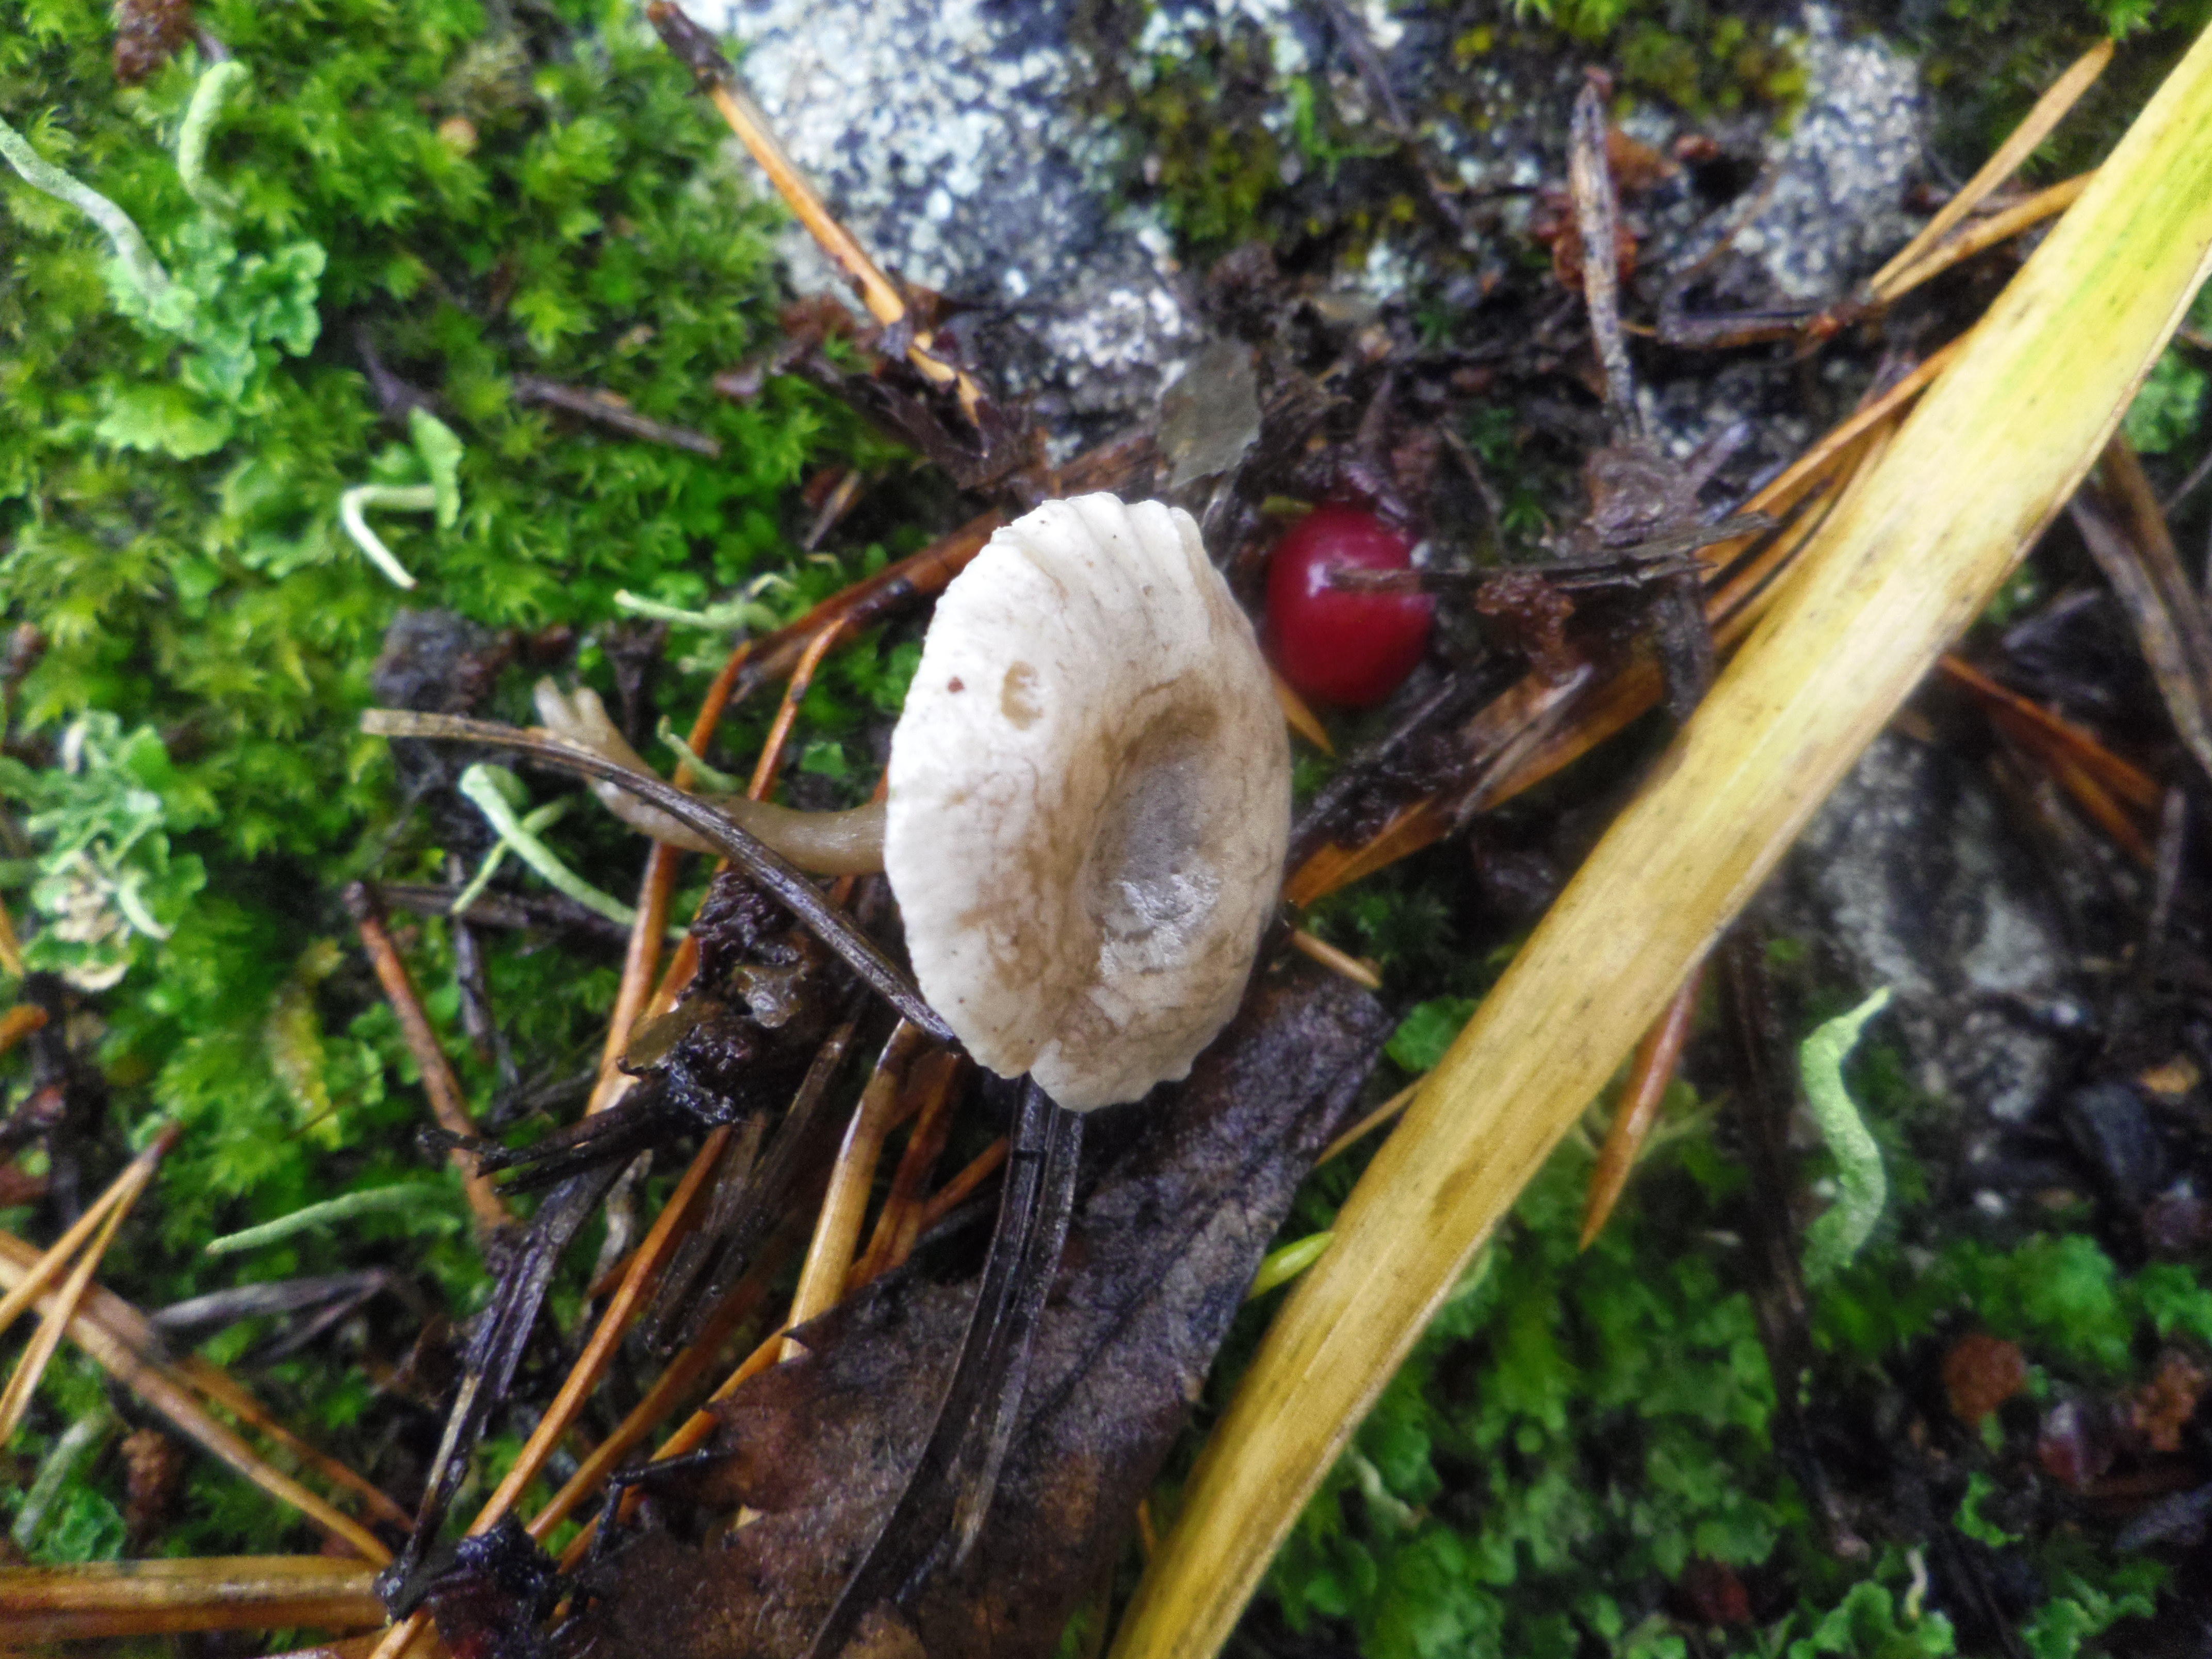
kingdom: Fungi
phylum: Basidiomycota
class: Agaricomycetes
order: Agaricales
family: Entolomataceae
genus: Clitopilopsis
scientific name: Clitopilopsis hirneola
